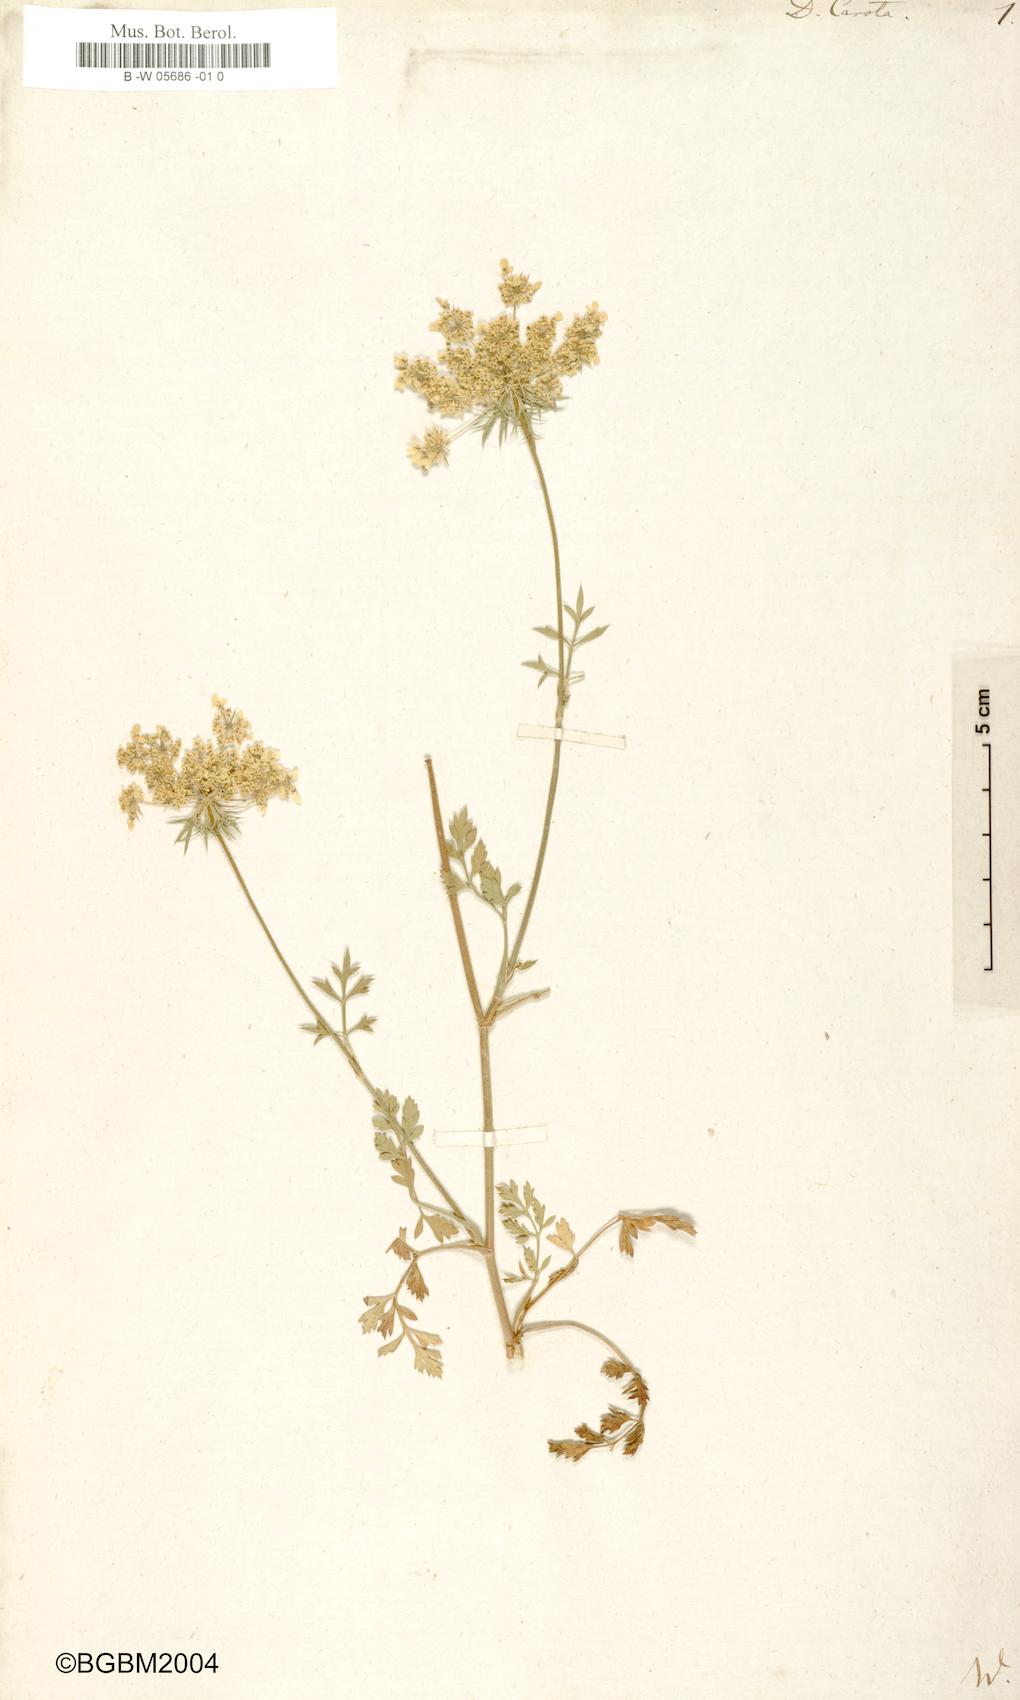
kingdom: Plantae
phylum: Tracheophyta
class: Magnoliopsida
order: Apiales
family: Apiaceae
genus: Daucus
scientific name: Daucus carota
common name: Wild carrot
